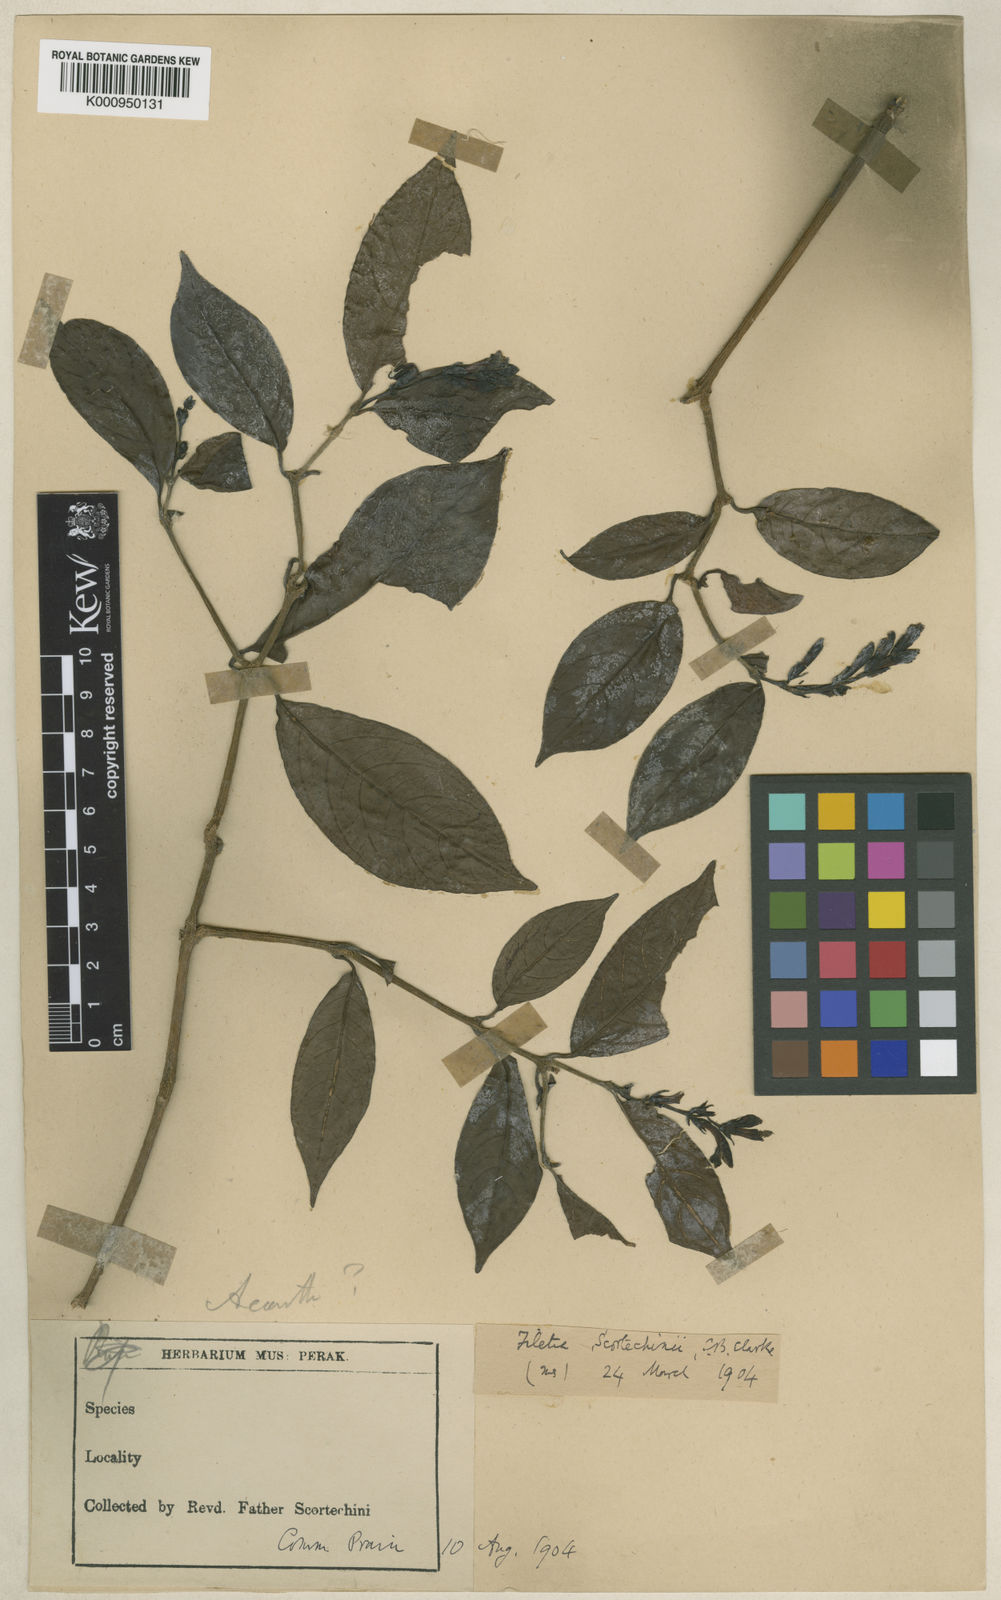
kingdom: Plantae
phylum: Tracheophyta
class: Magnoliopsida
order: Lamiales
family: Acanthaceae
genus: Filetia
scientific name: Filetia scortechinii
